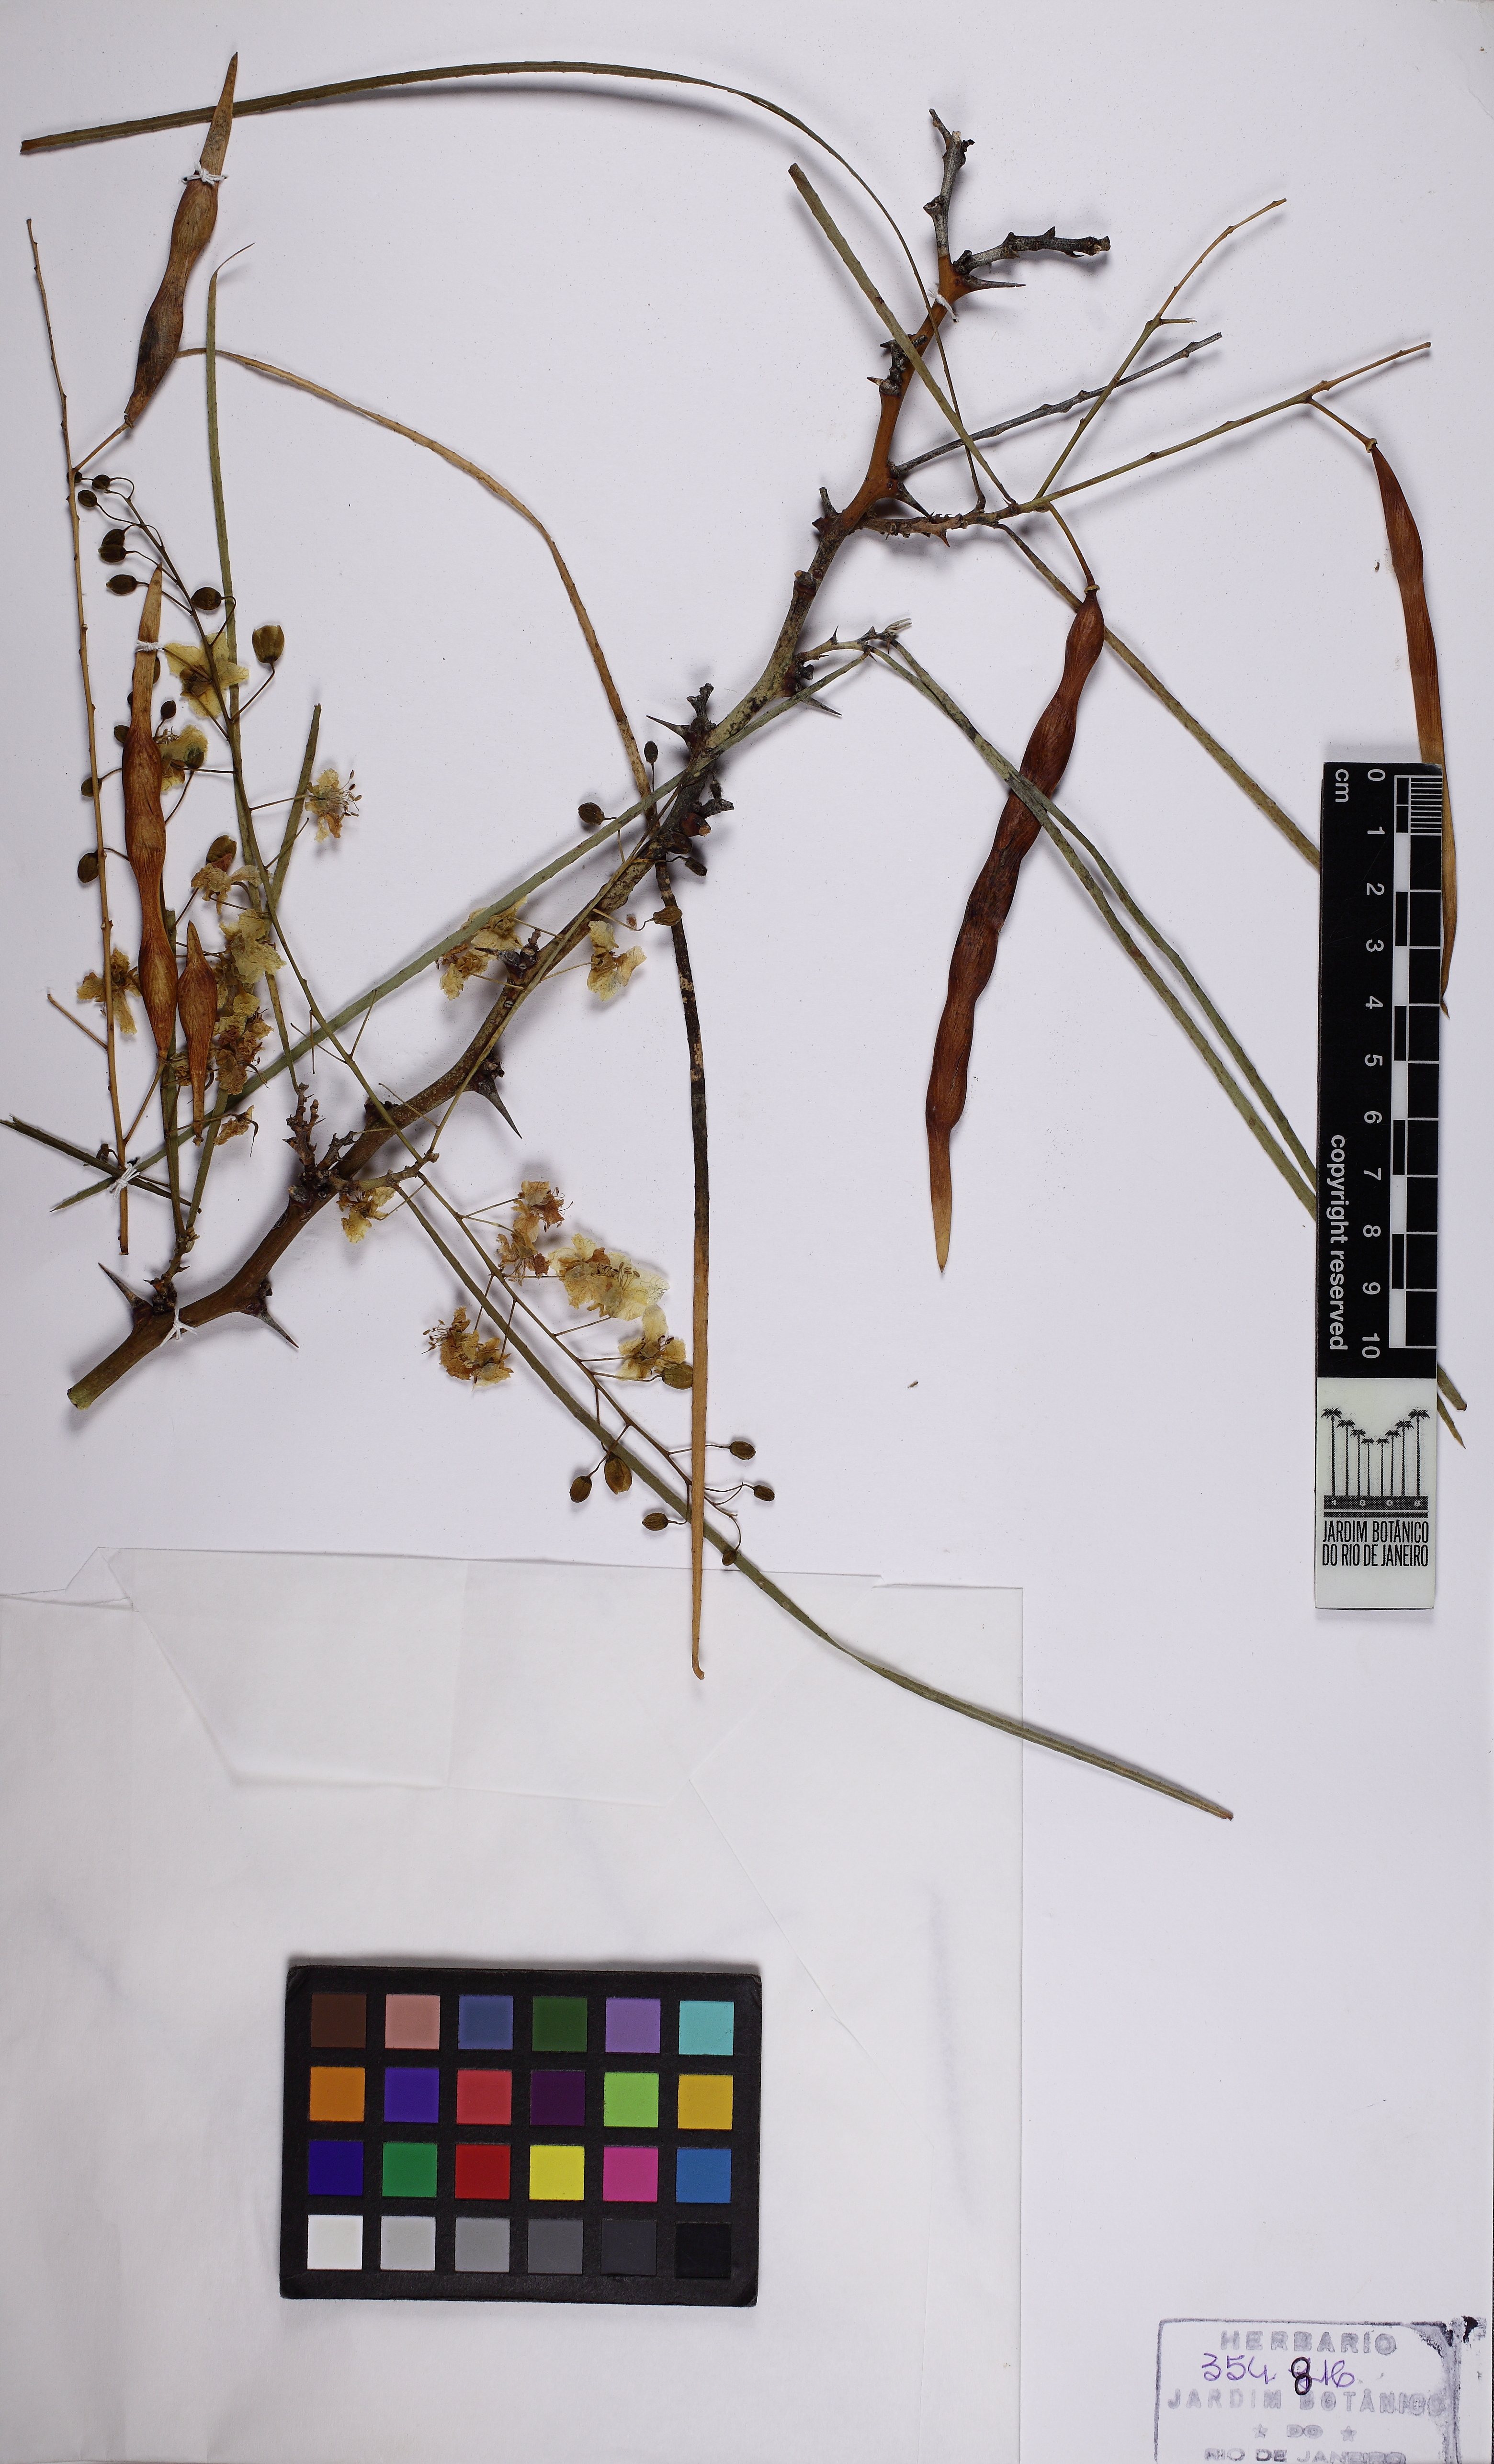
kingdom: Plantae
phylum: Tracheophyta
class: Magnoliopsida
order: Fabales
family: Fabaceae
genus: Parkinsonia
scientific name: Parkinsonia aculeata
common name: Jerusalem thorn
